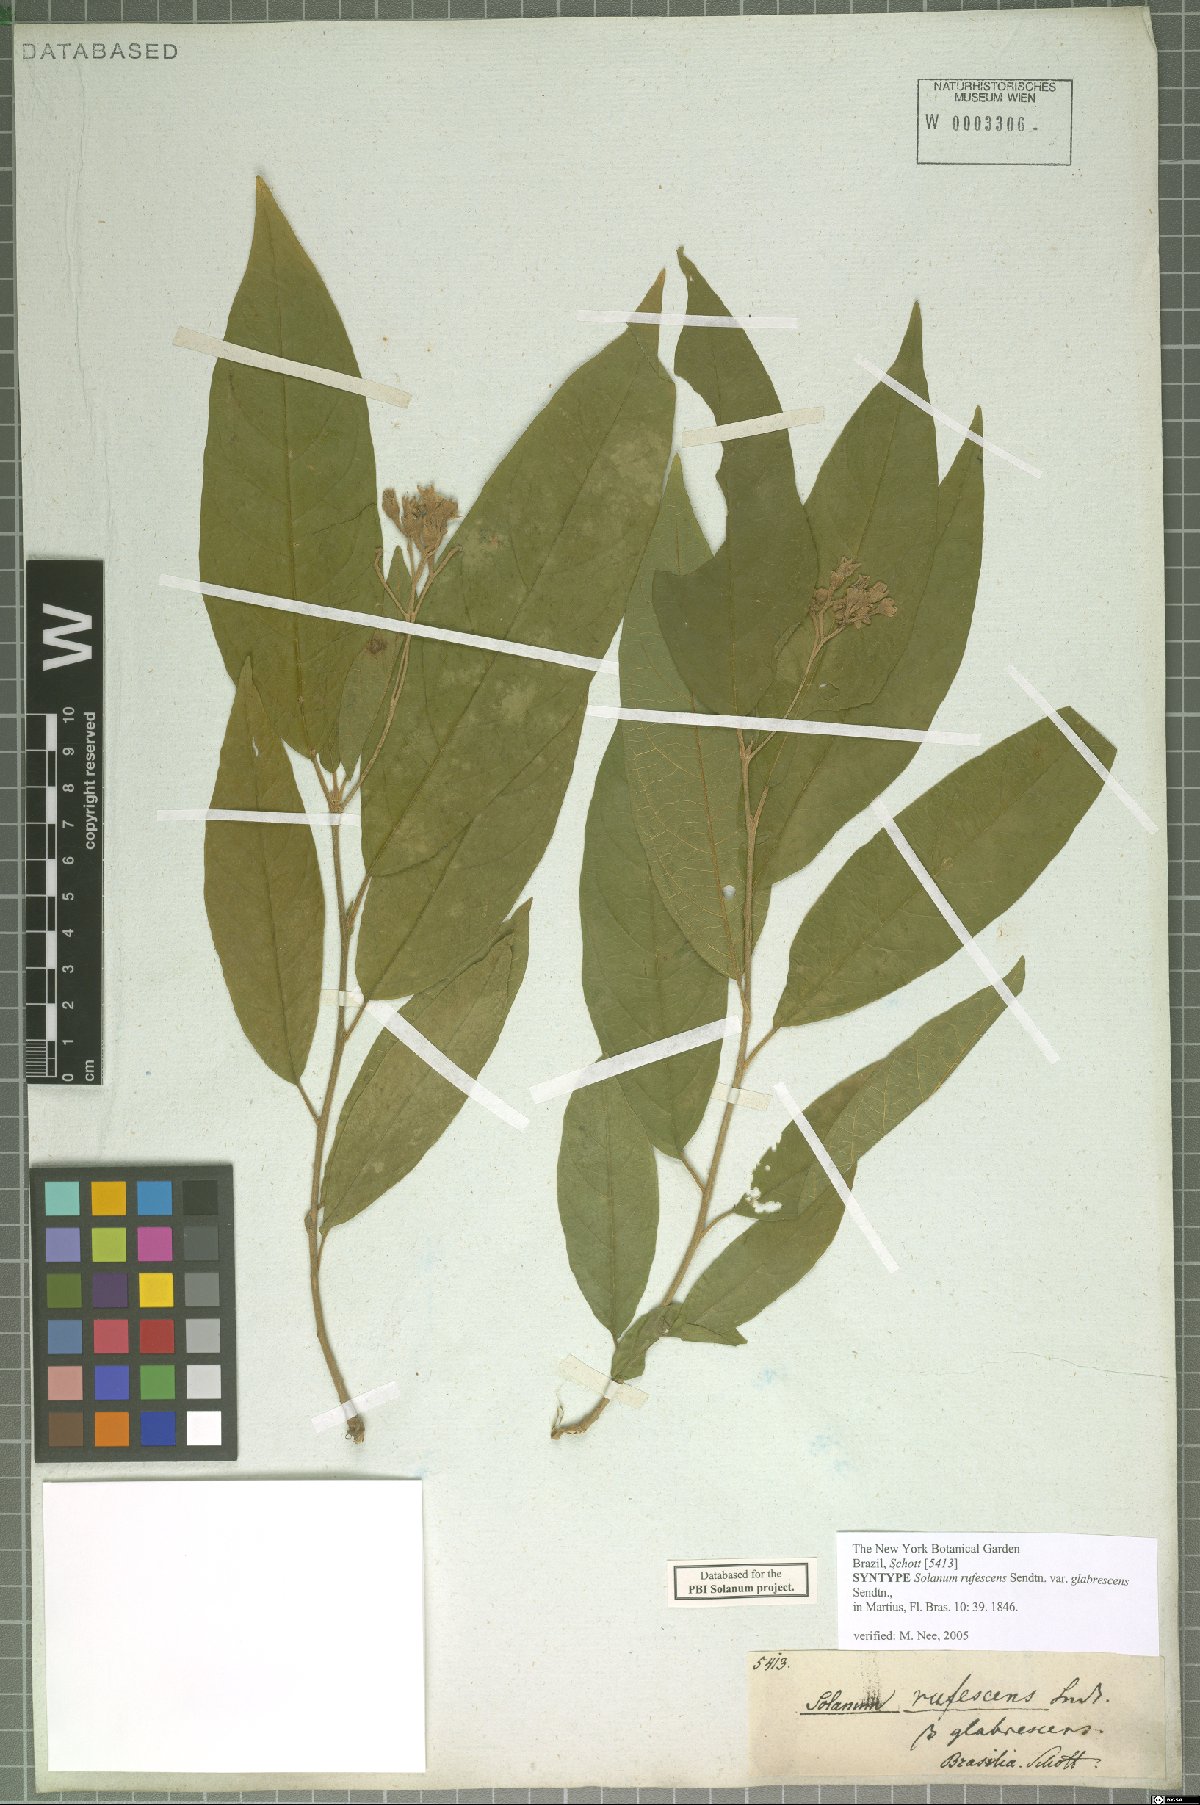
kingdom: Plantae
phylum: Tracheophyta
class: Magnoliopsida
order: Solanales
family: Solanaceae
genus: Solanum
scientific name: Solanum rufescens
